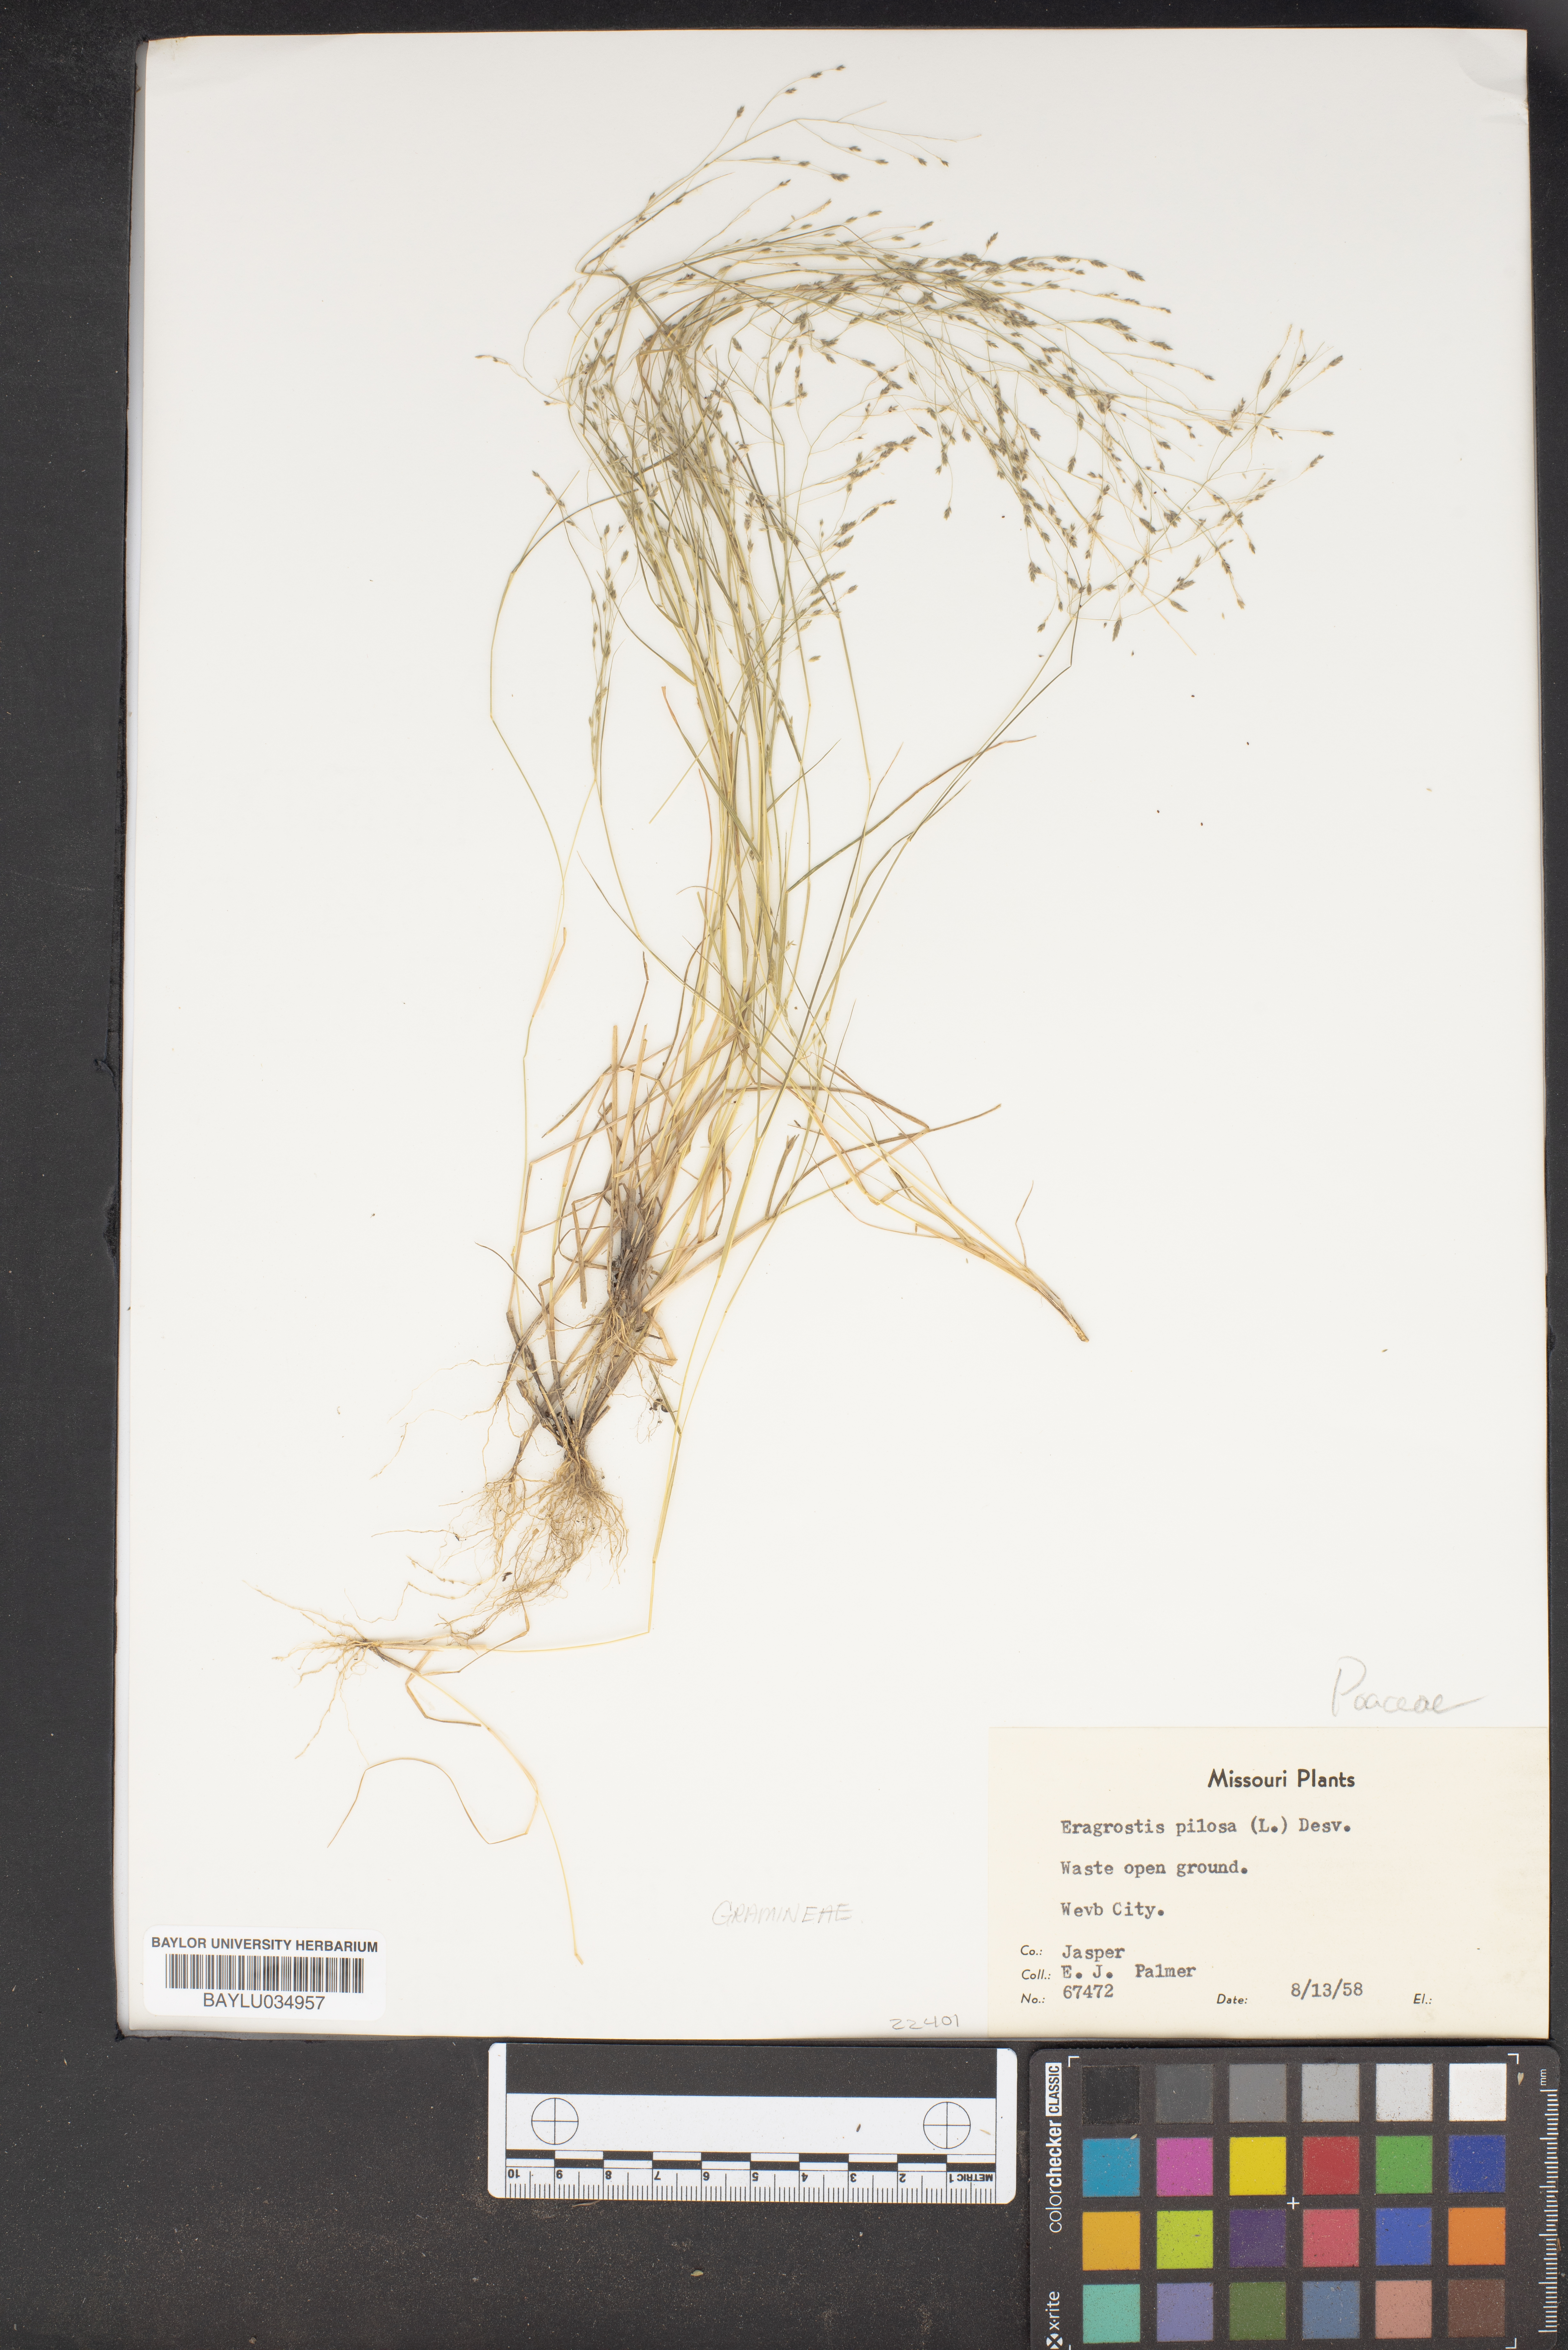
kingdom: Plantae
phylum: Tracheophyta
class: Liliopsida
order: Poales
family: Poaceae
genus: Eragrostis
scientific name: Eragrostis pilosa
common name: Indian lovegrass
